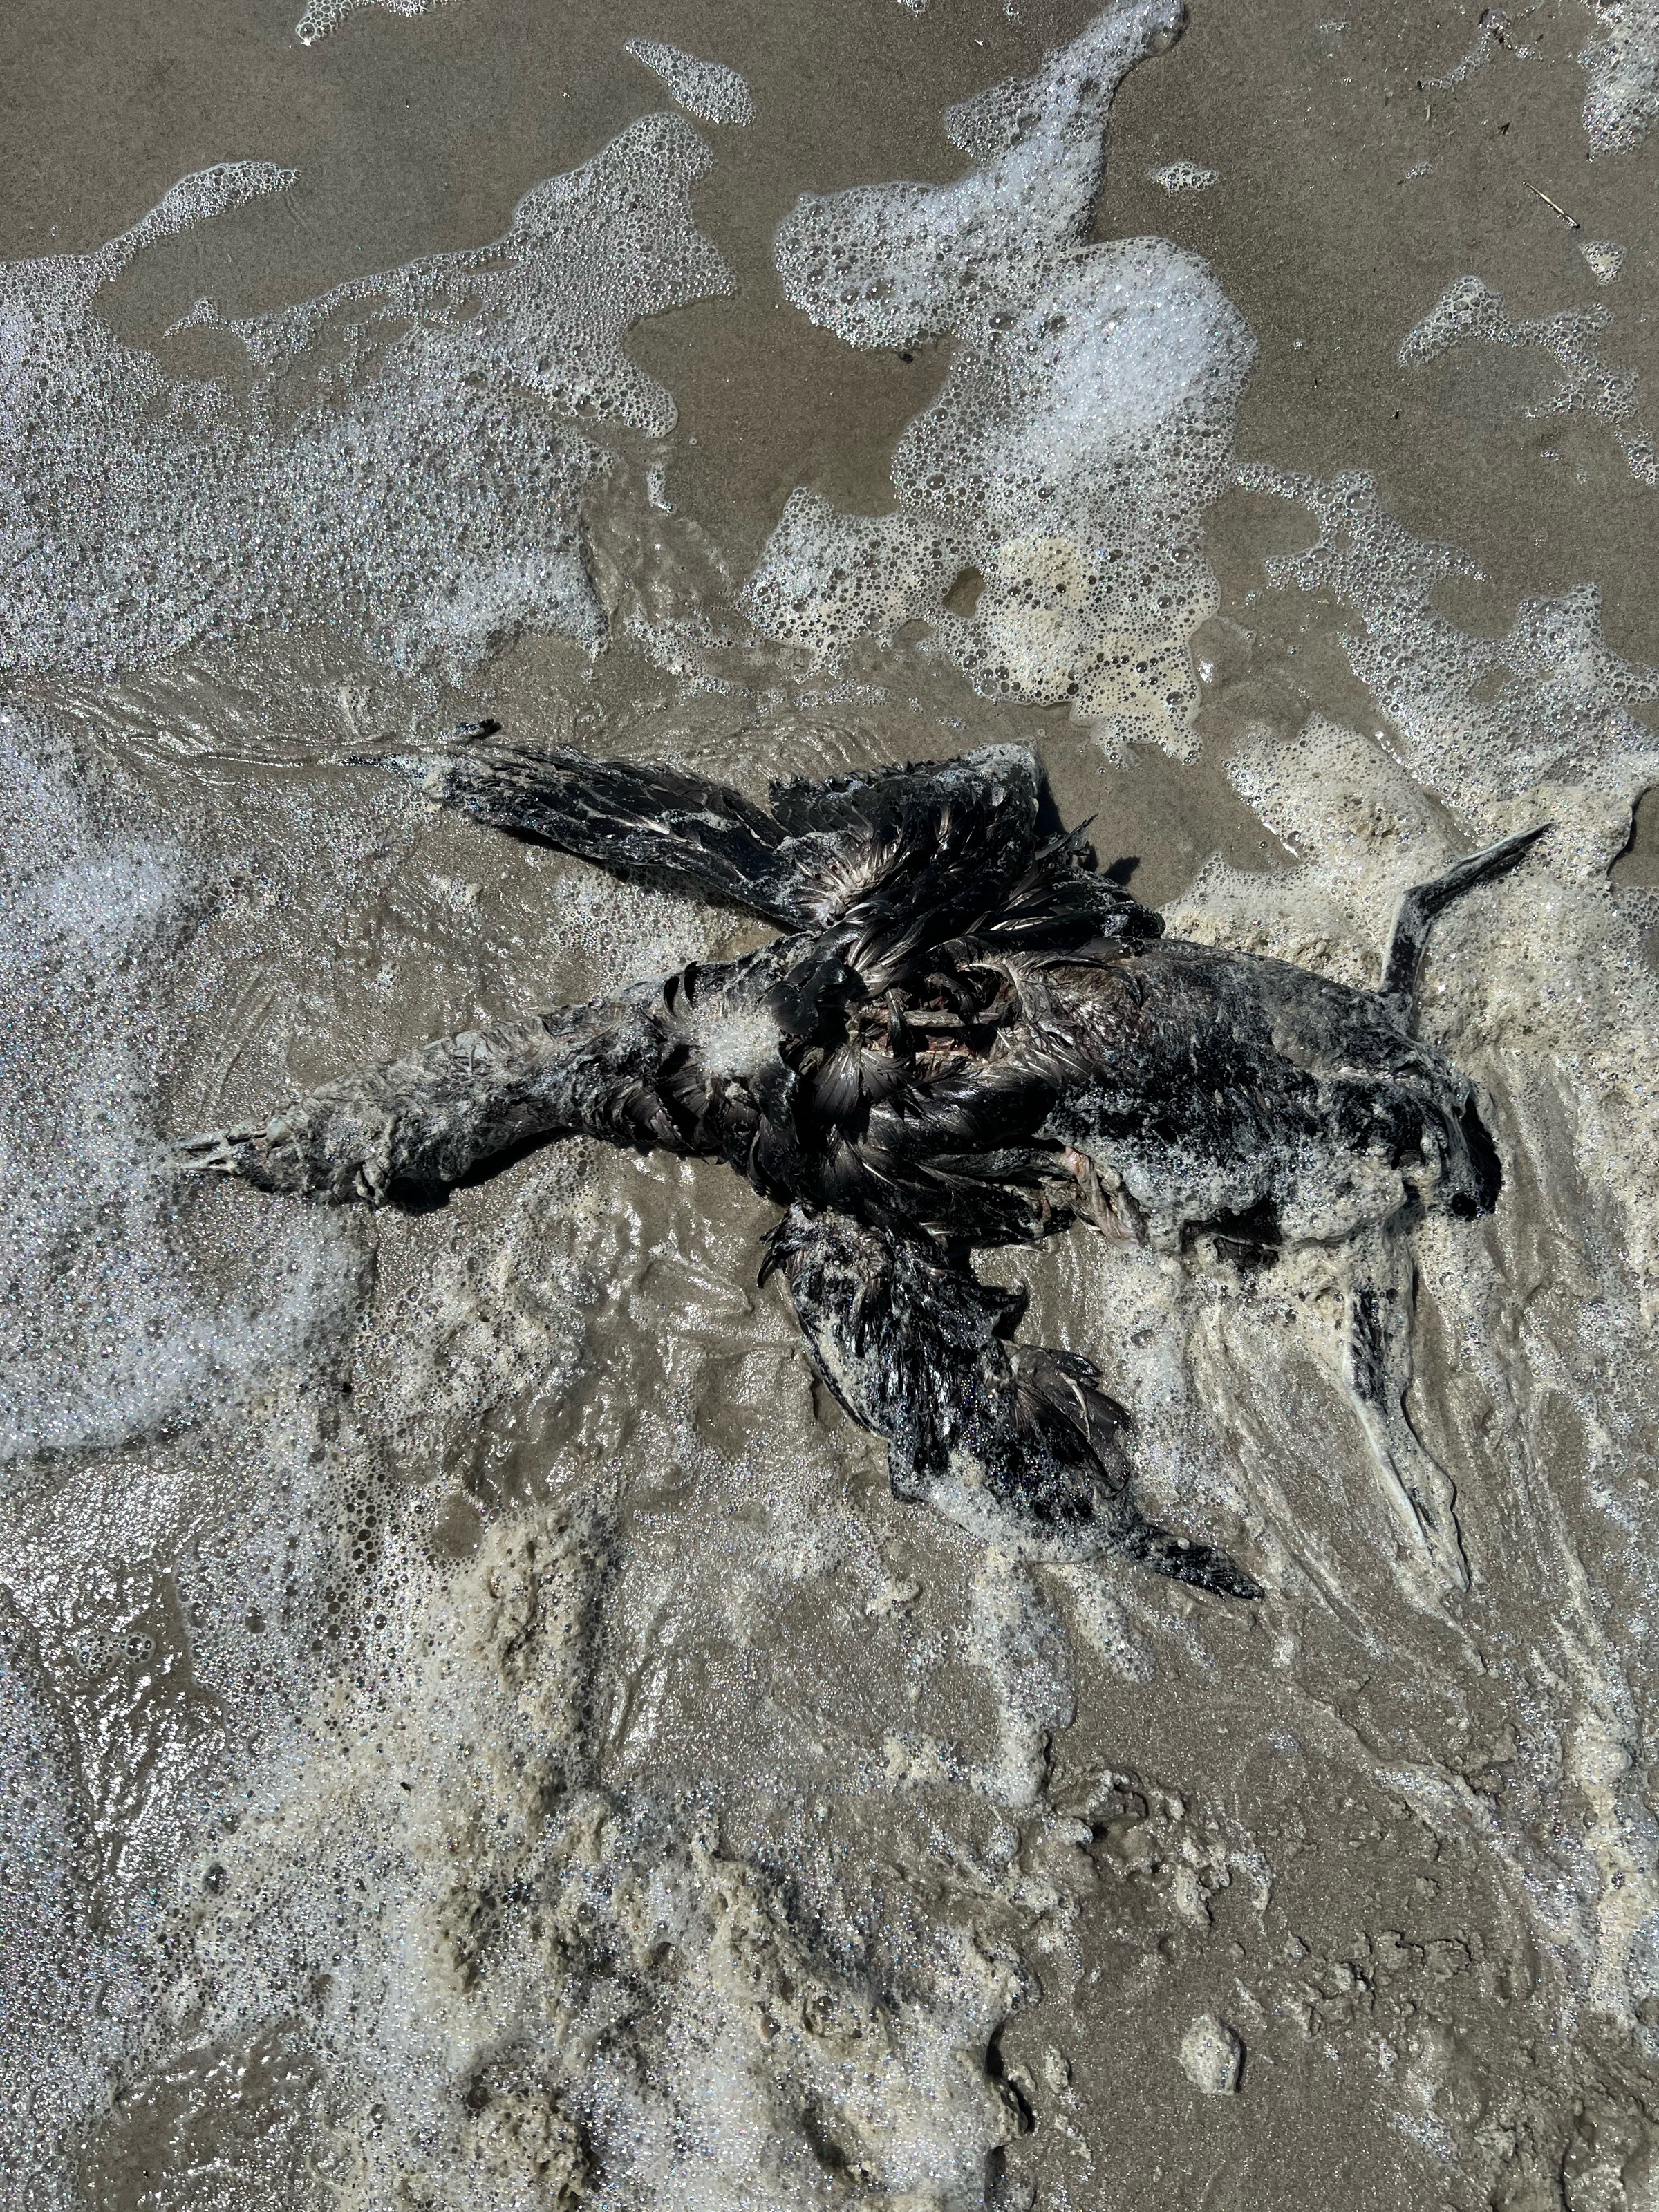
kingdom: Animalia
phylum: Chordata
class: Aves
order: Gaviiformes
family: Gaviidae
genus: Gavia
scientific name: Gavia immer
